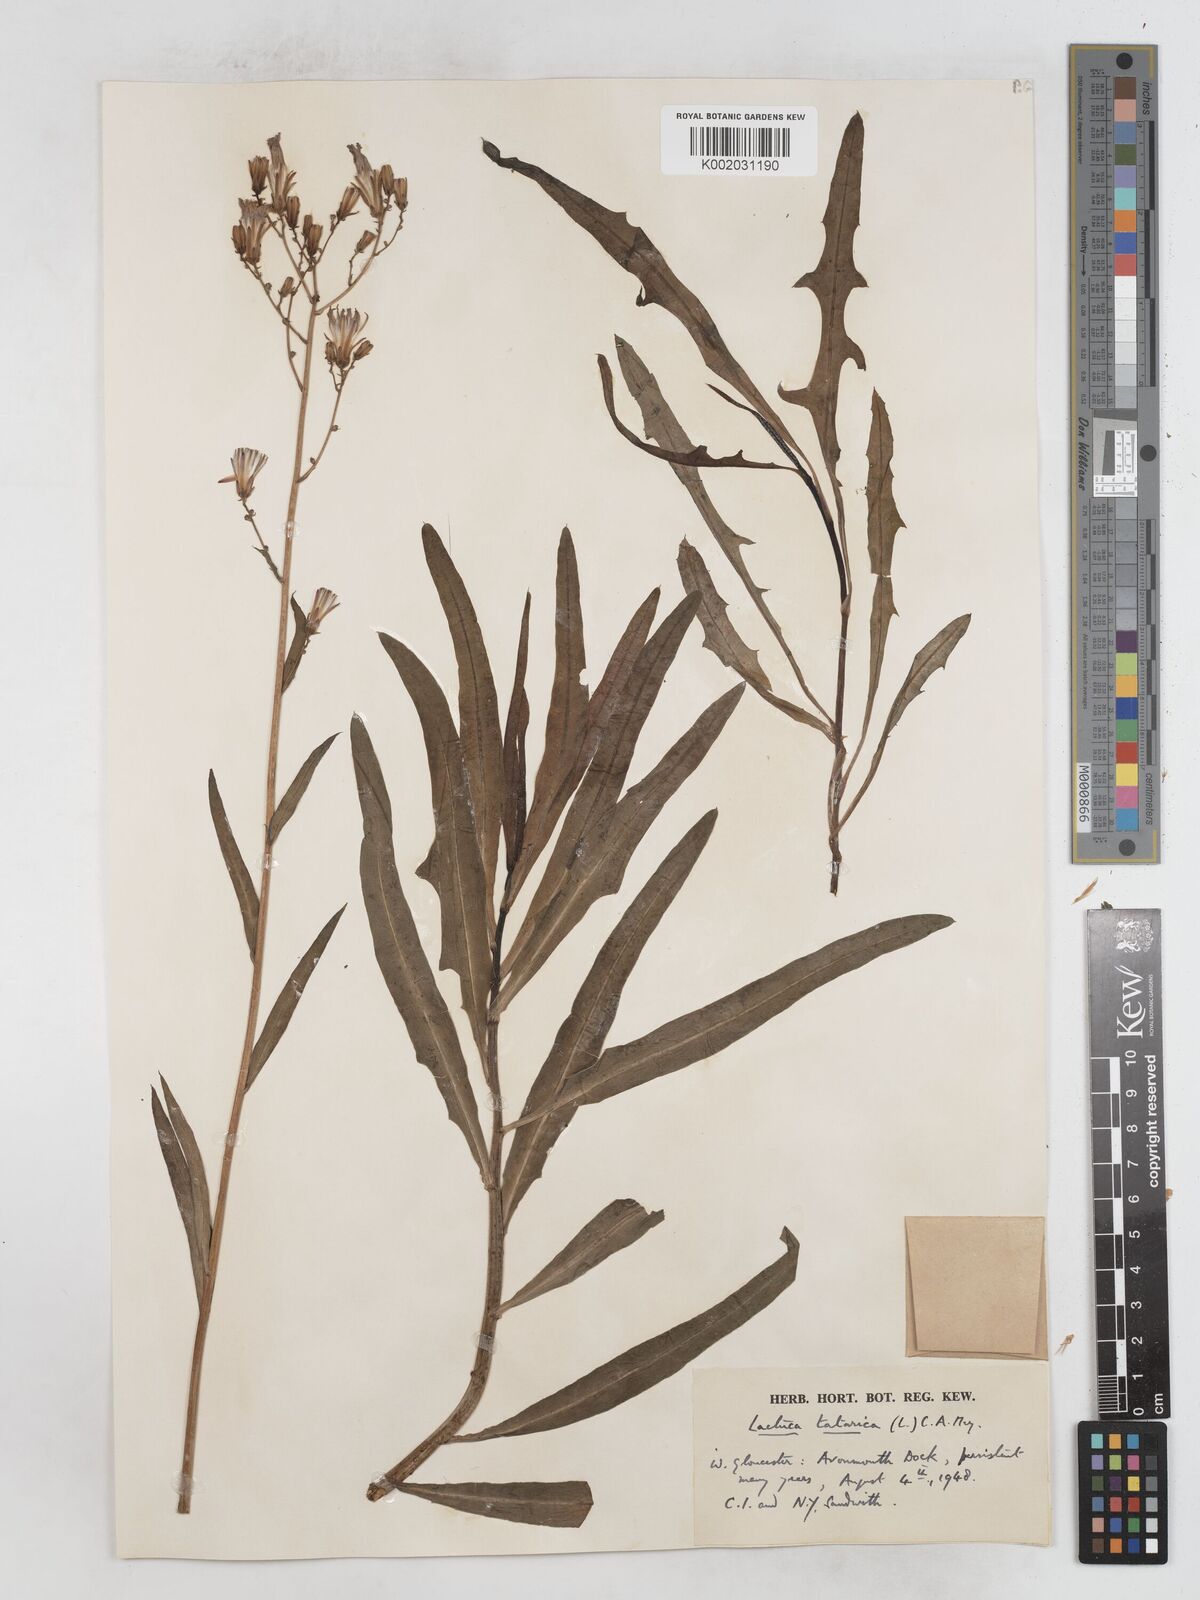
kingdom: Plantae
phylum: Tracheophyta
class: Magnoliopsida
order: Asterales
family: Asteraceae
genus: Lactuca
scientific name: Lactuca tatarica
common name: Blue lettuce
